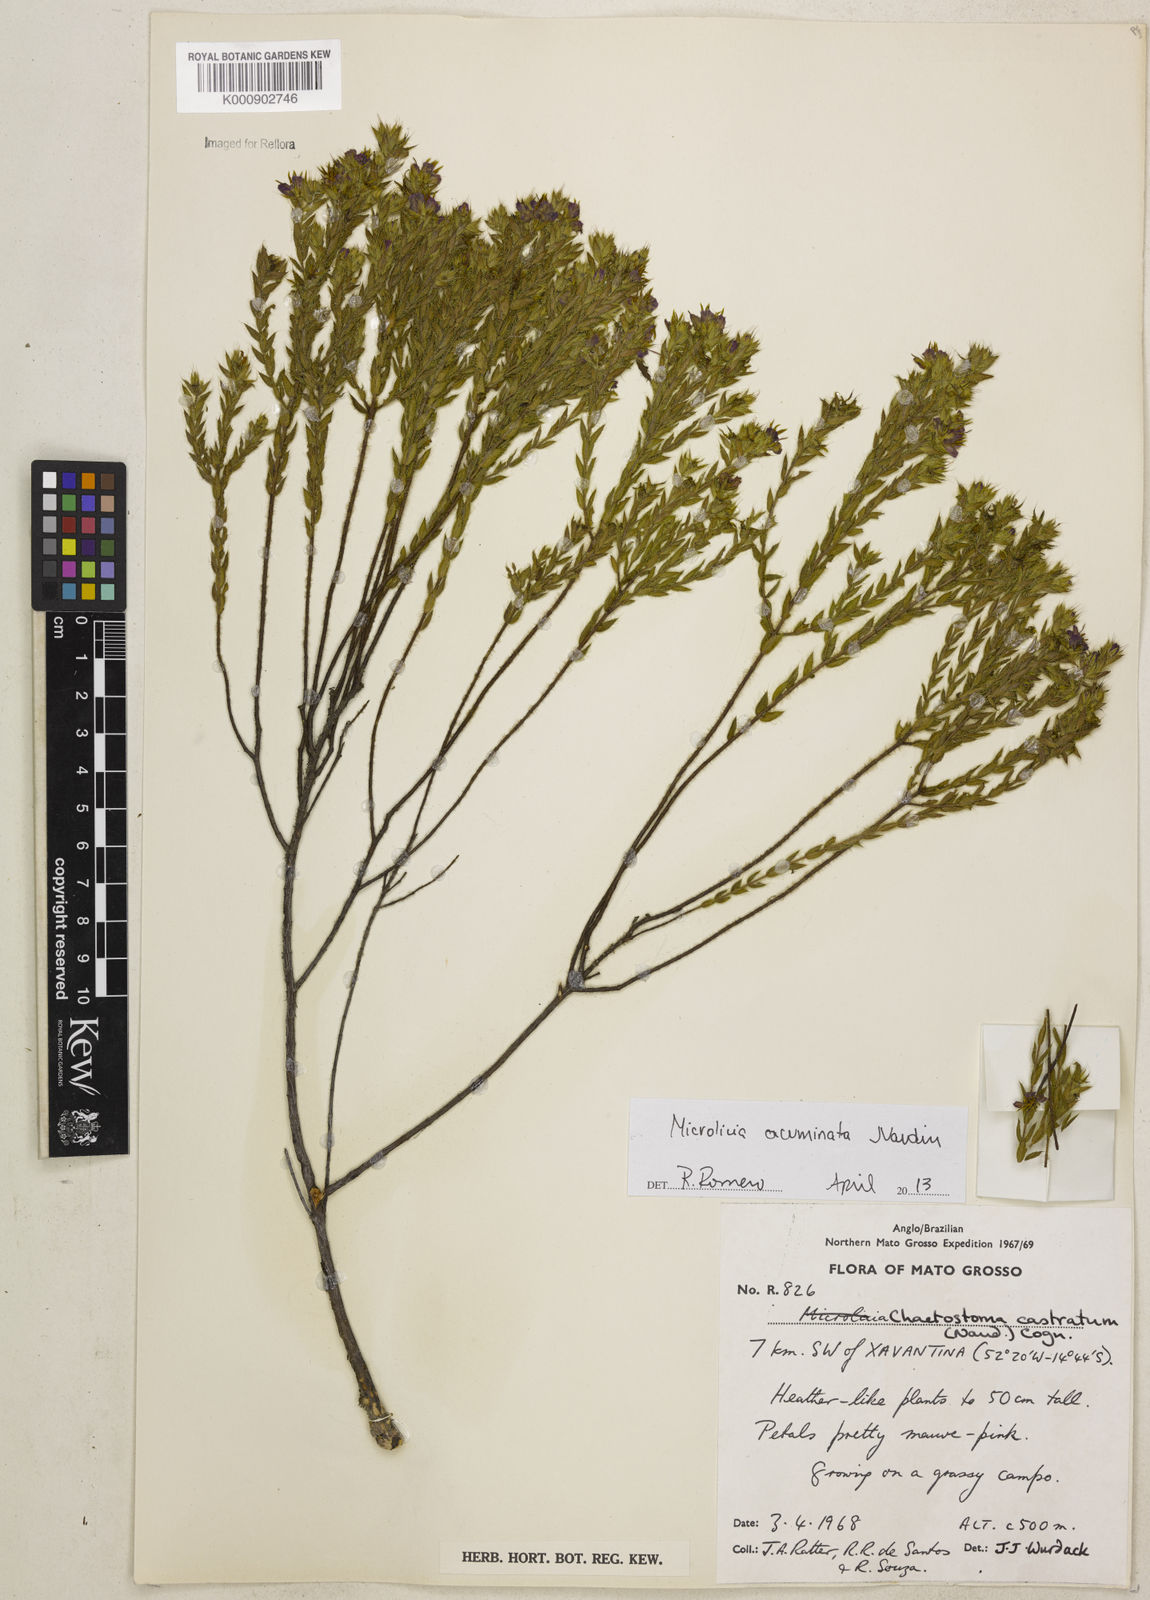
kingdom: Plantae
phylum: Tracheophyta
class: Magnoliopsida
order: Myrtales
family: Melastomataceae
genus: Microlicia
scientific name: Microlicia hirticalyx
